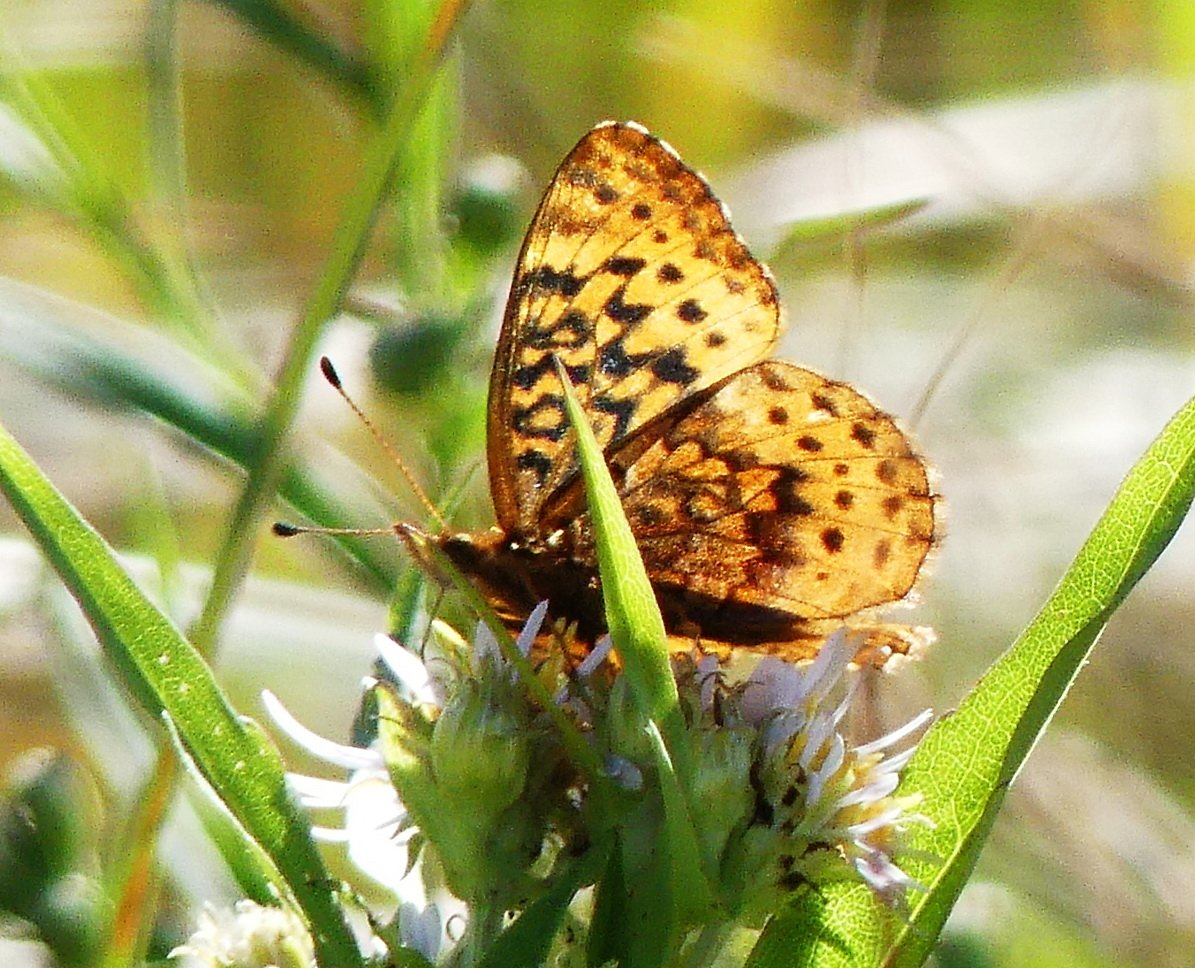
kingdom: Animalia
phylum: Arthropoda
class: Insecta
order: Lepidoptera
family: Nymphalidae
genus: Clossiana
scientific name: Clossiana toddi
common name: Meadow Fritillary
